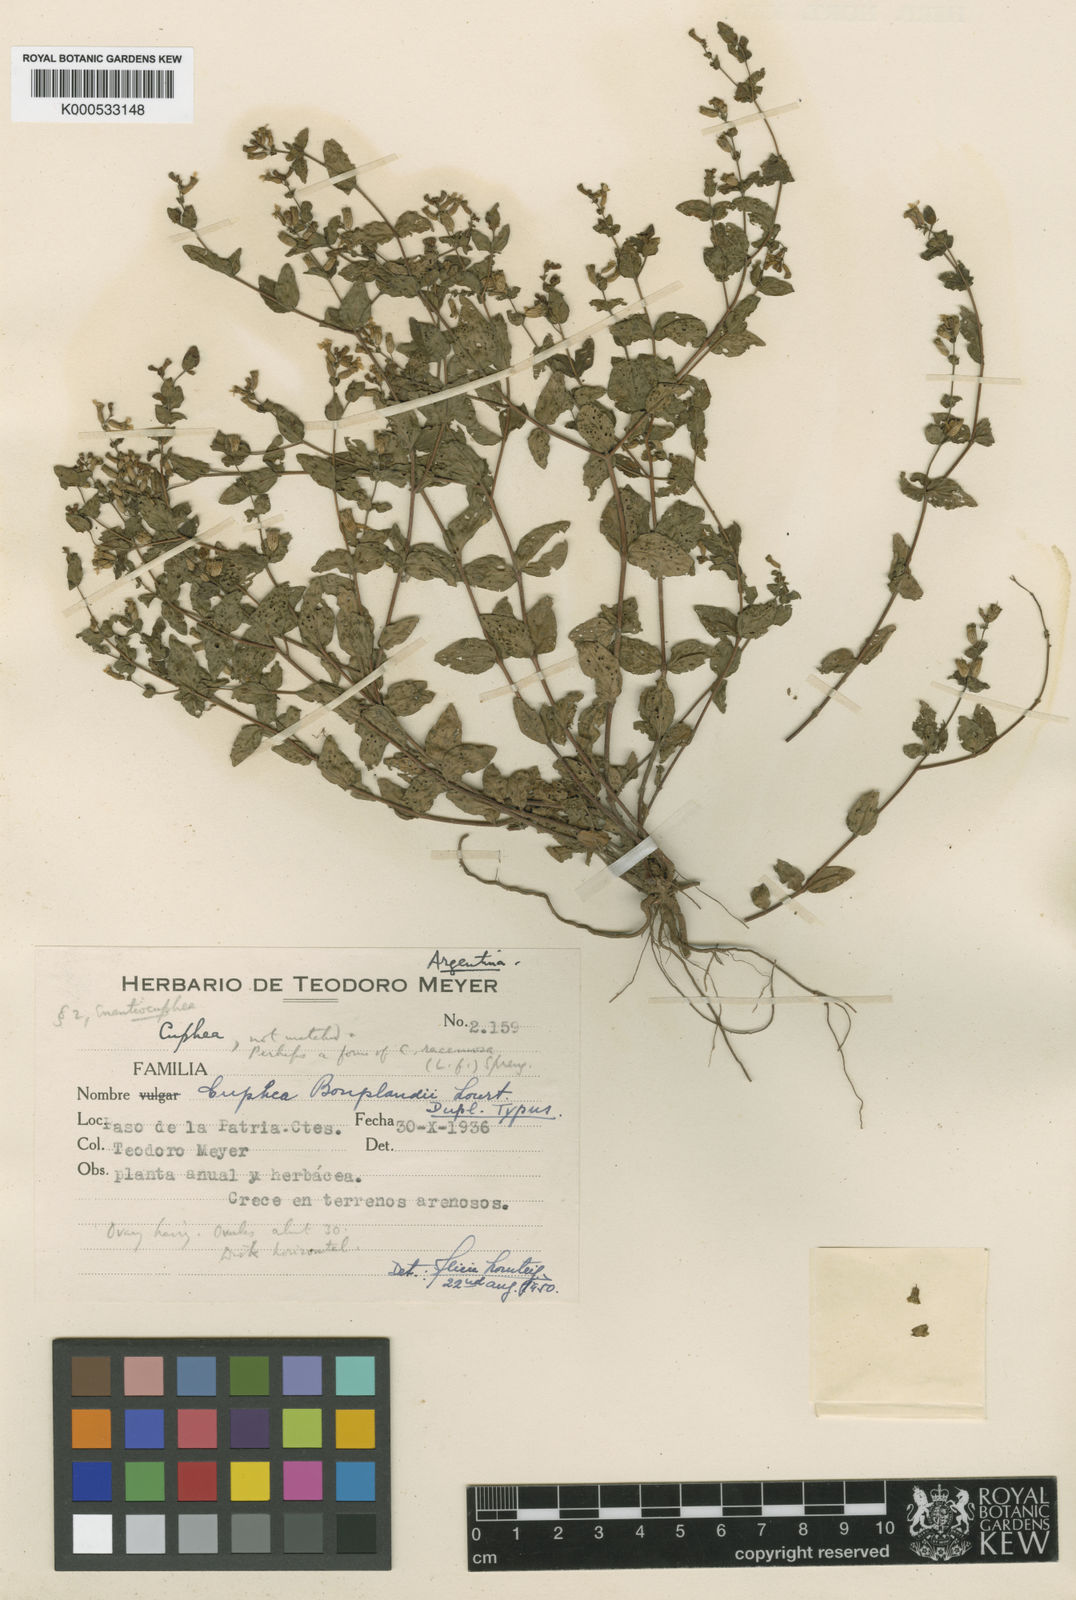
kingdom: Plantae
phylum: Tracheophyta
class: Magnoliopsida
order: Myrtales
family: Lythraceae
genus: Cuphea
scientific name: Cuphea bonplandii
